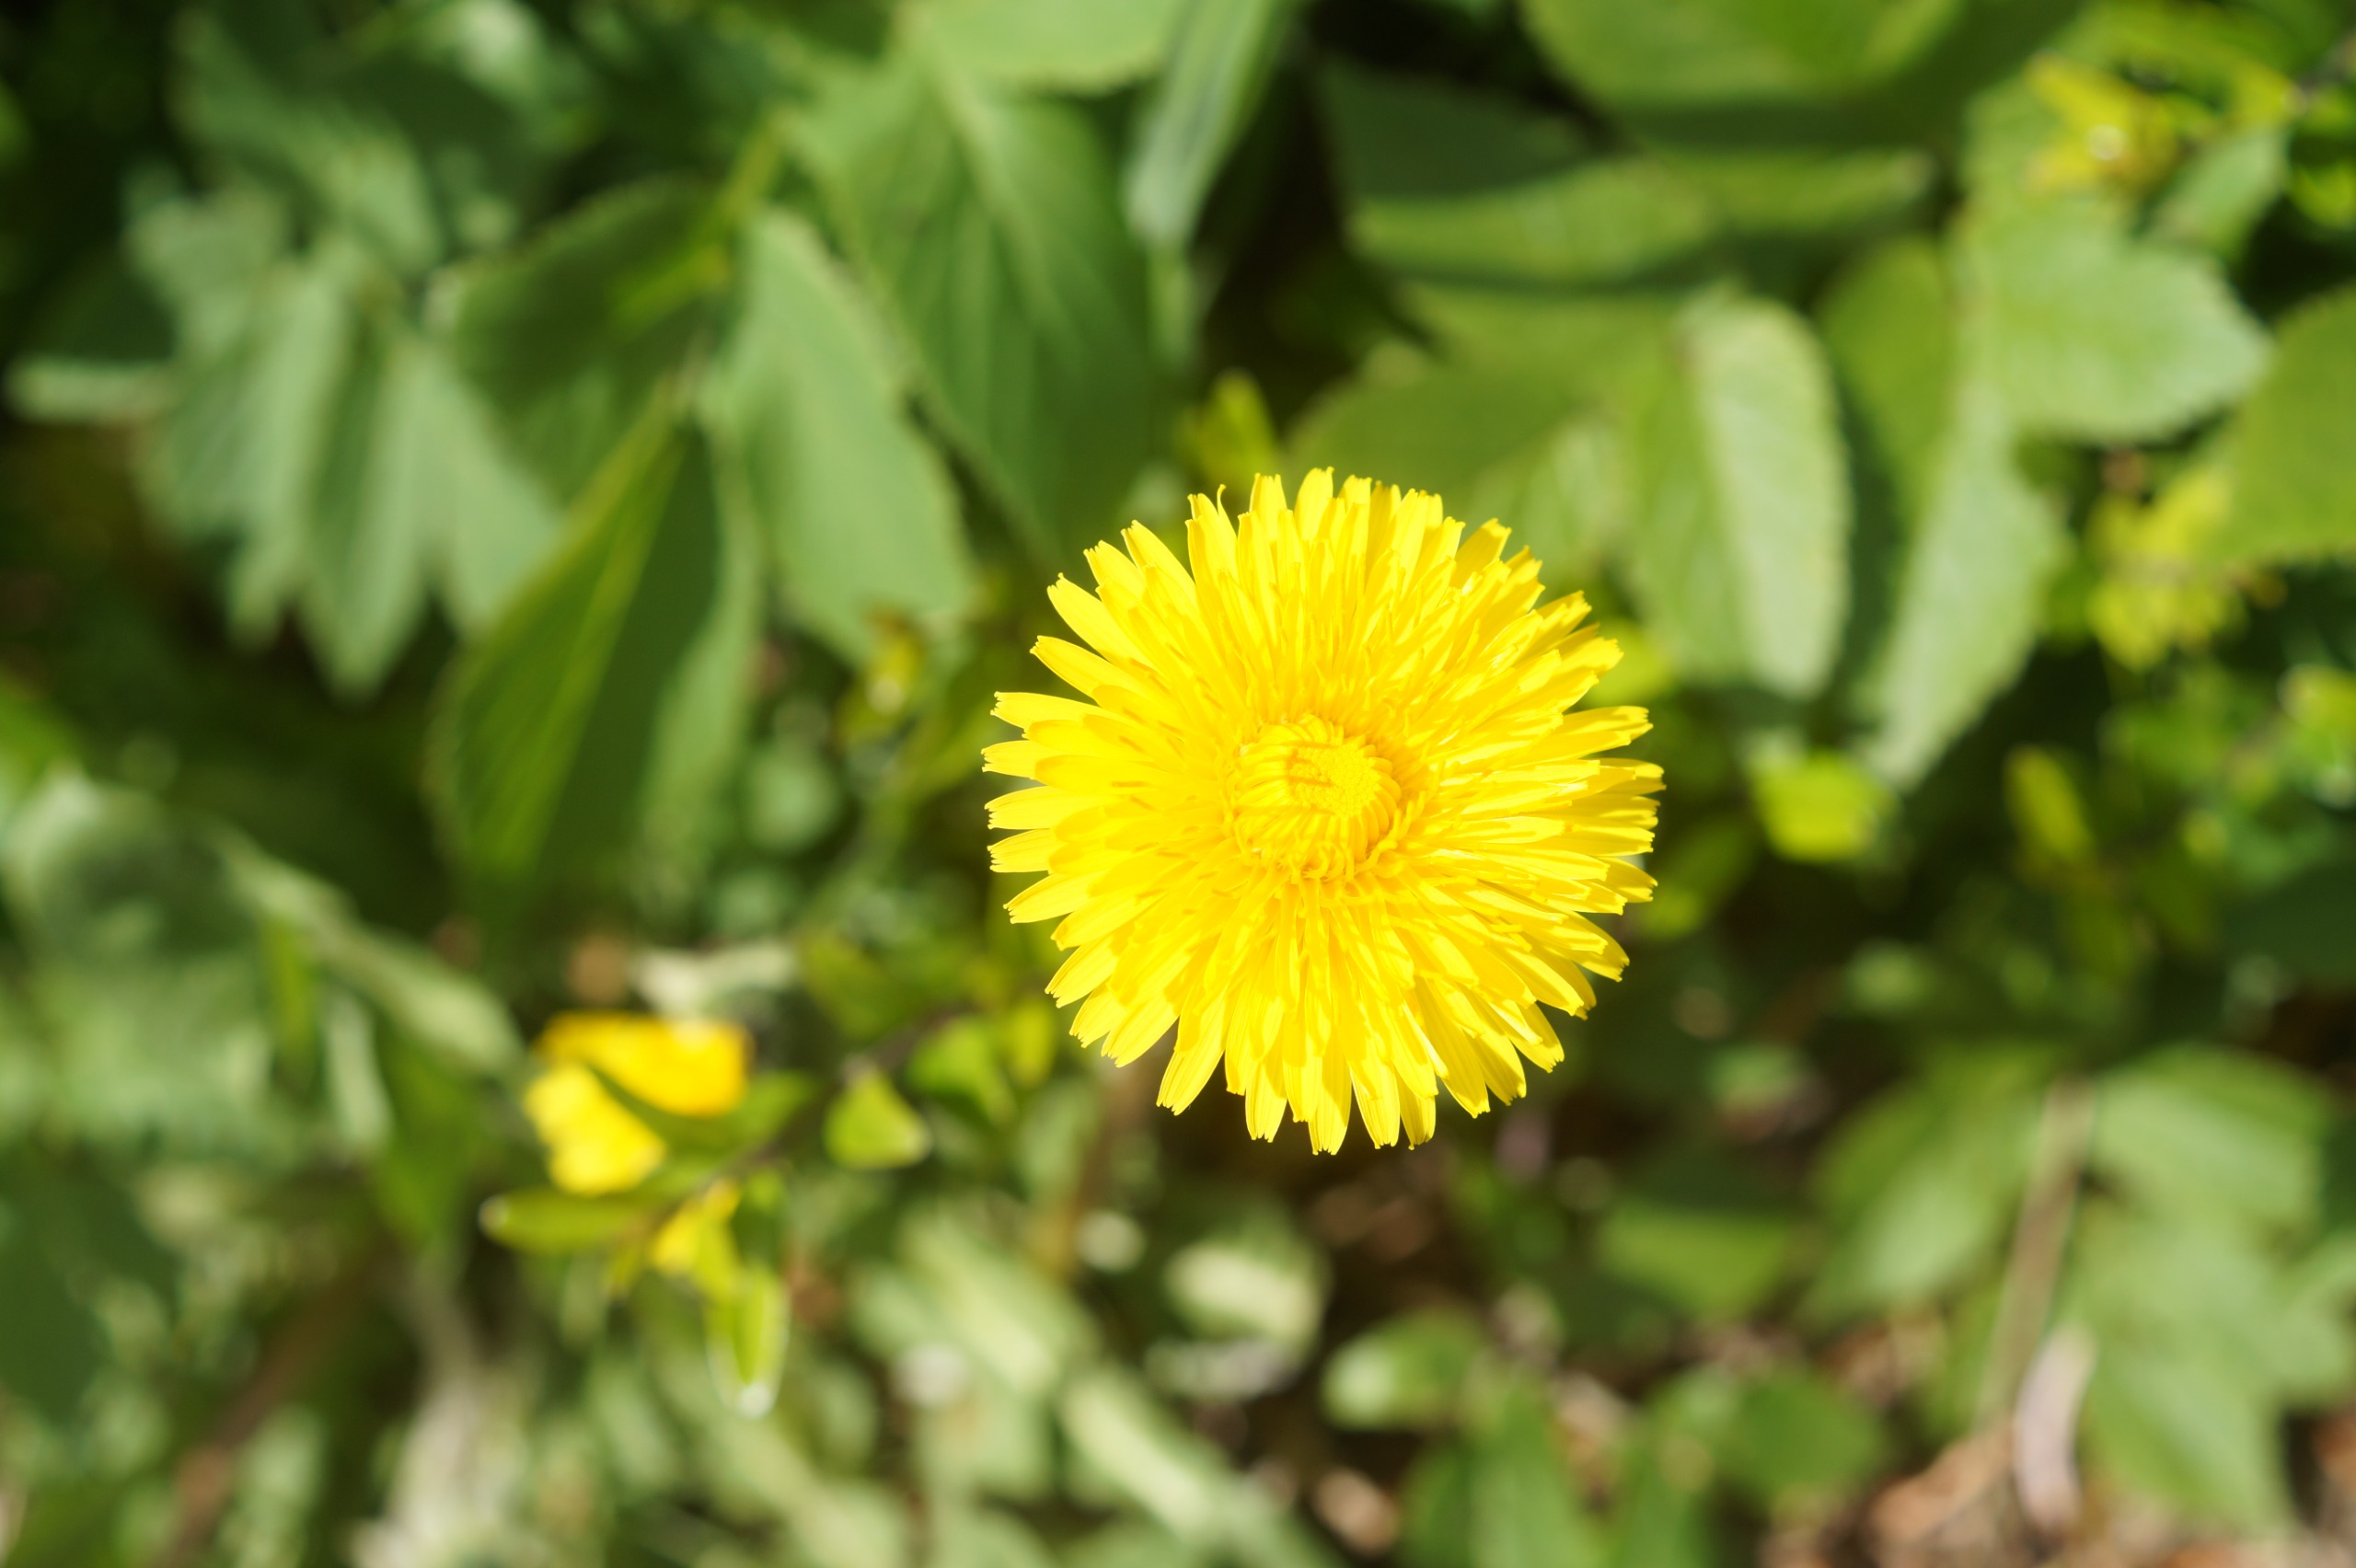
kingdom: Plantae
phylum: Tracheophyta
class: Magnoliopsida
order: Asterales
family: Asteraceae
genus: Taraxacum
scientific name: Taraxacum
